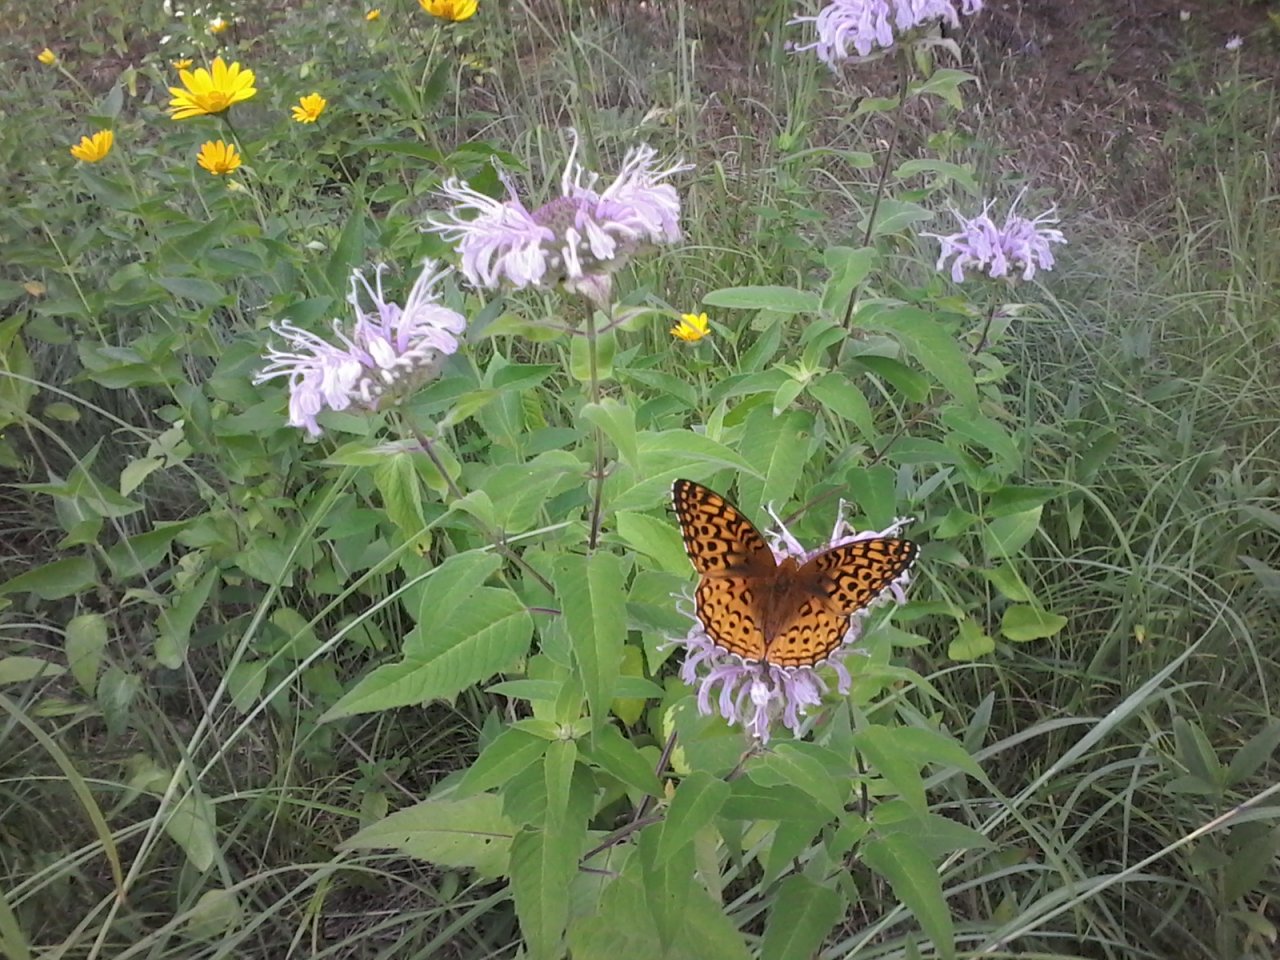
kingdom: Animalia
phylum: Arthropoda
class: Insecta
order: Lepidoptera
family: Nymphalidae
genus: Speyeria
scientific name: Speyeria aphrodite
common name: Aphrodite Fritillary
